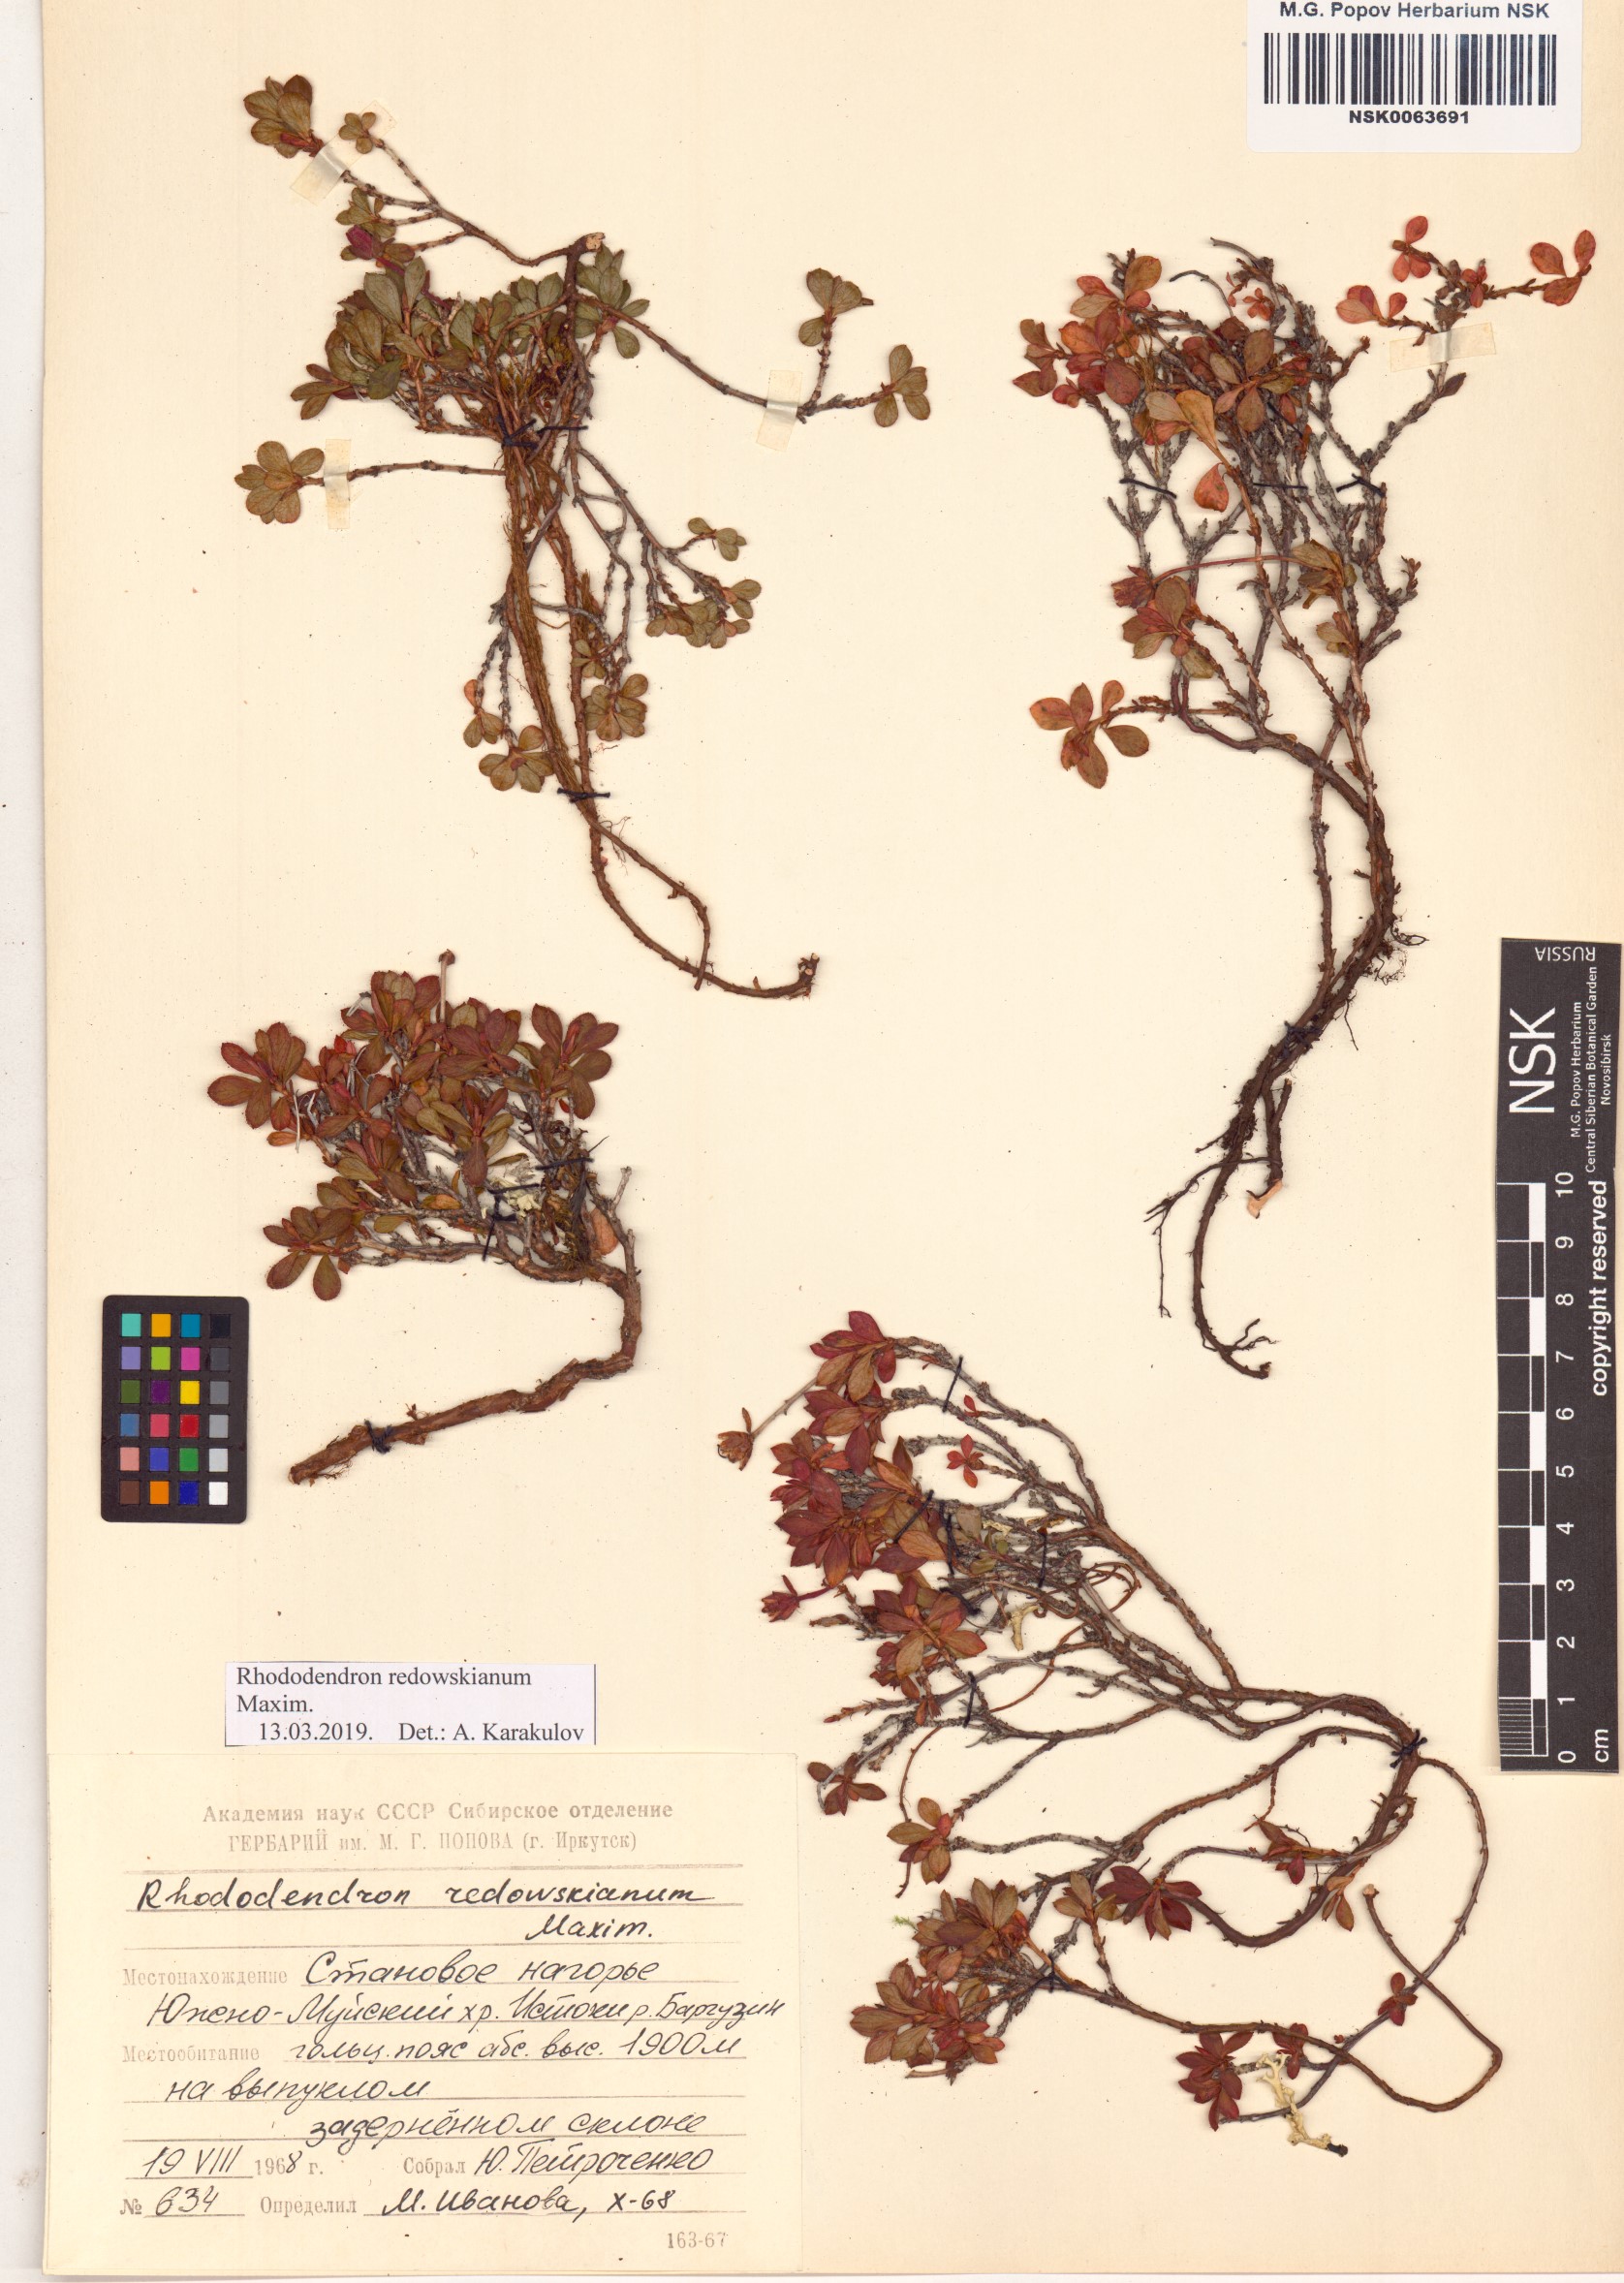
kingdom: Plantae
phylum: Tracheophyta
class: Magnoliopsida
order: Ericales
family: Ericaceae
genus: Rhododendron
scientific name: Rhododendron redowskianum
